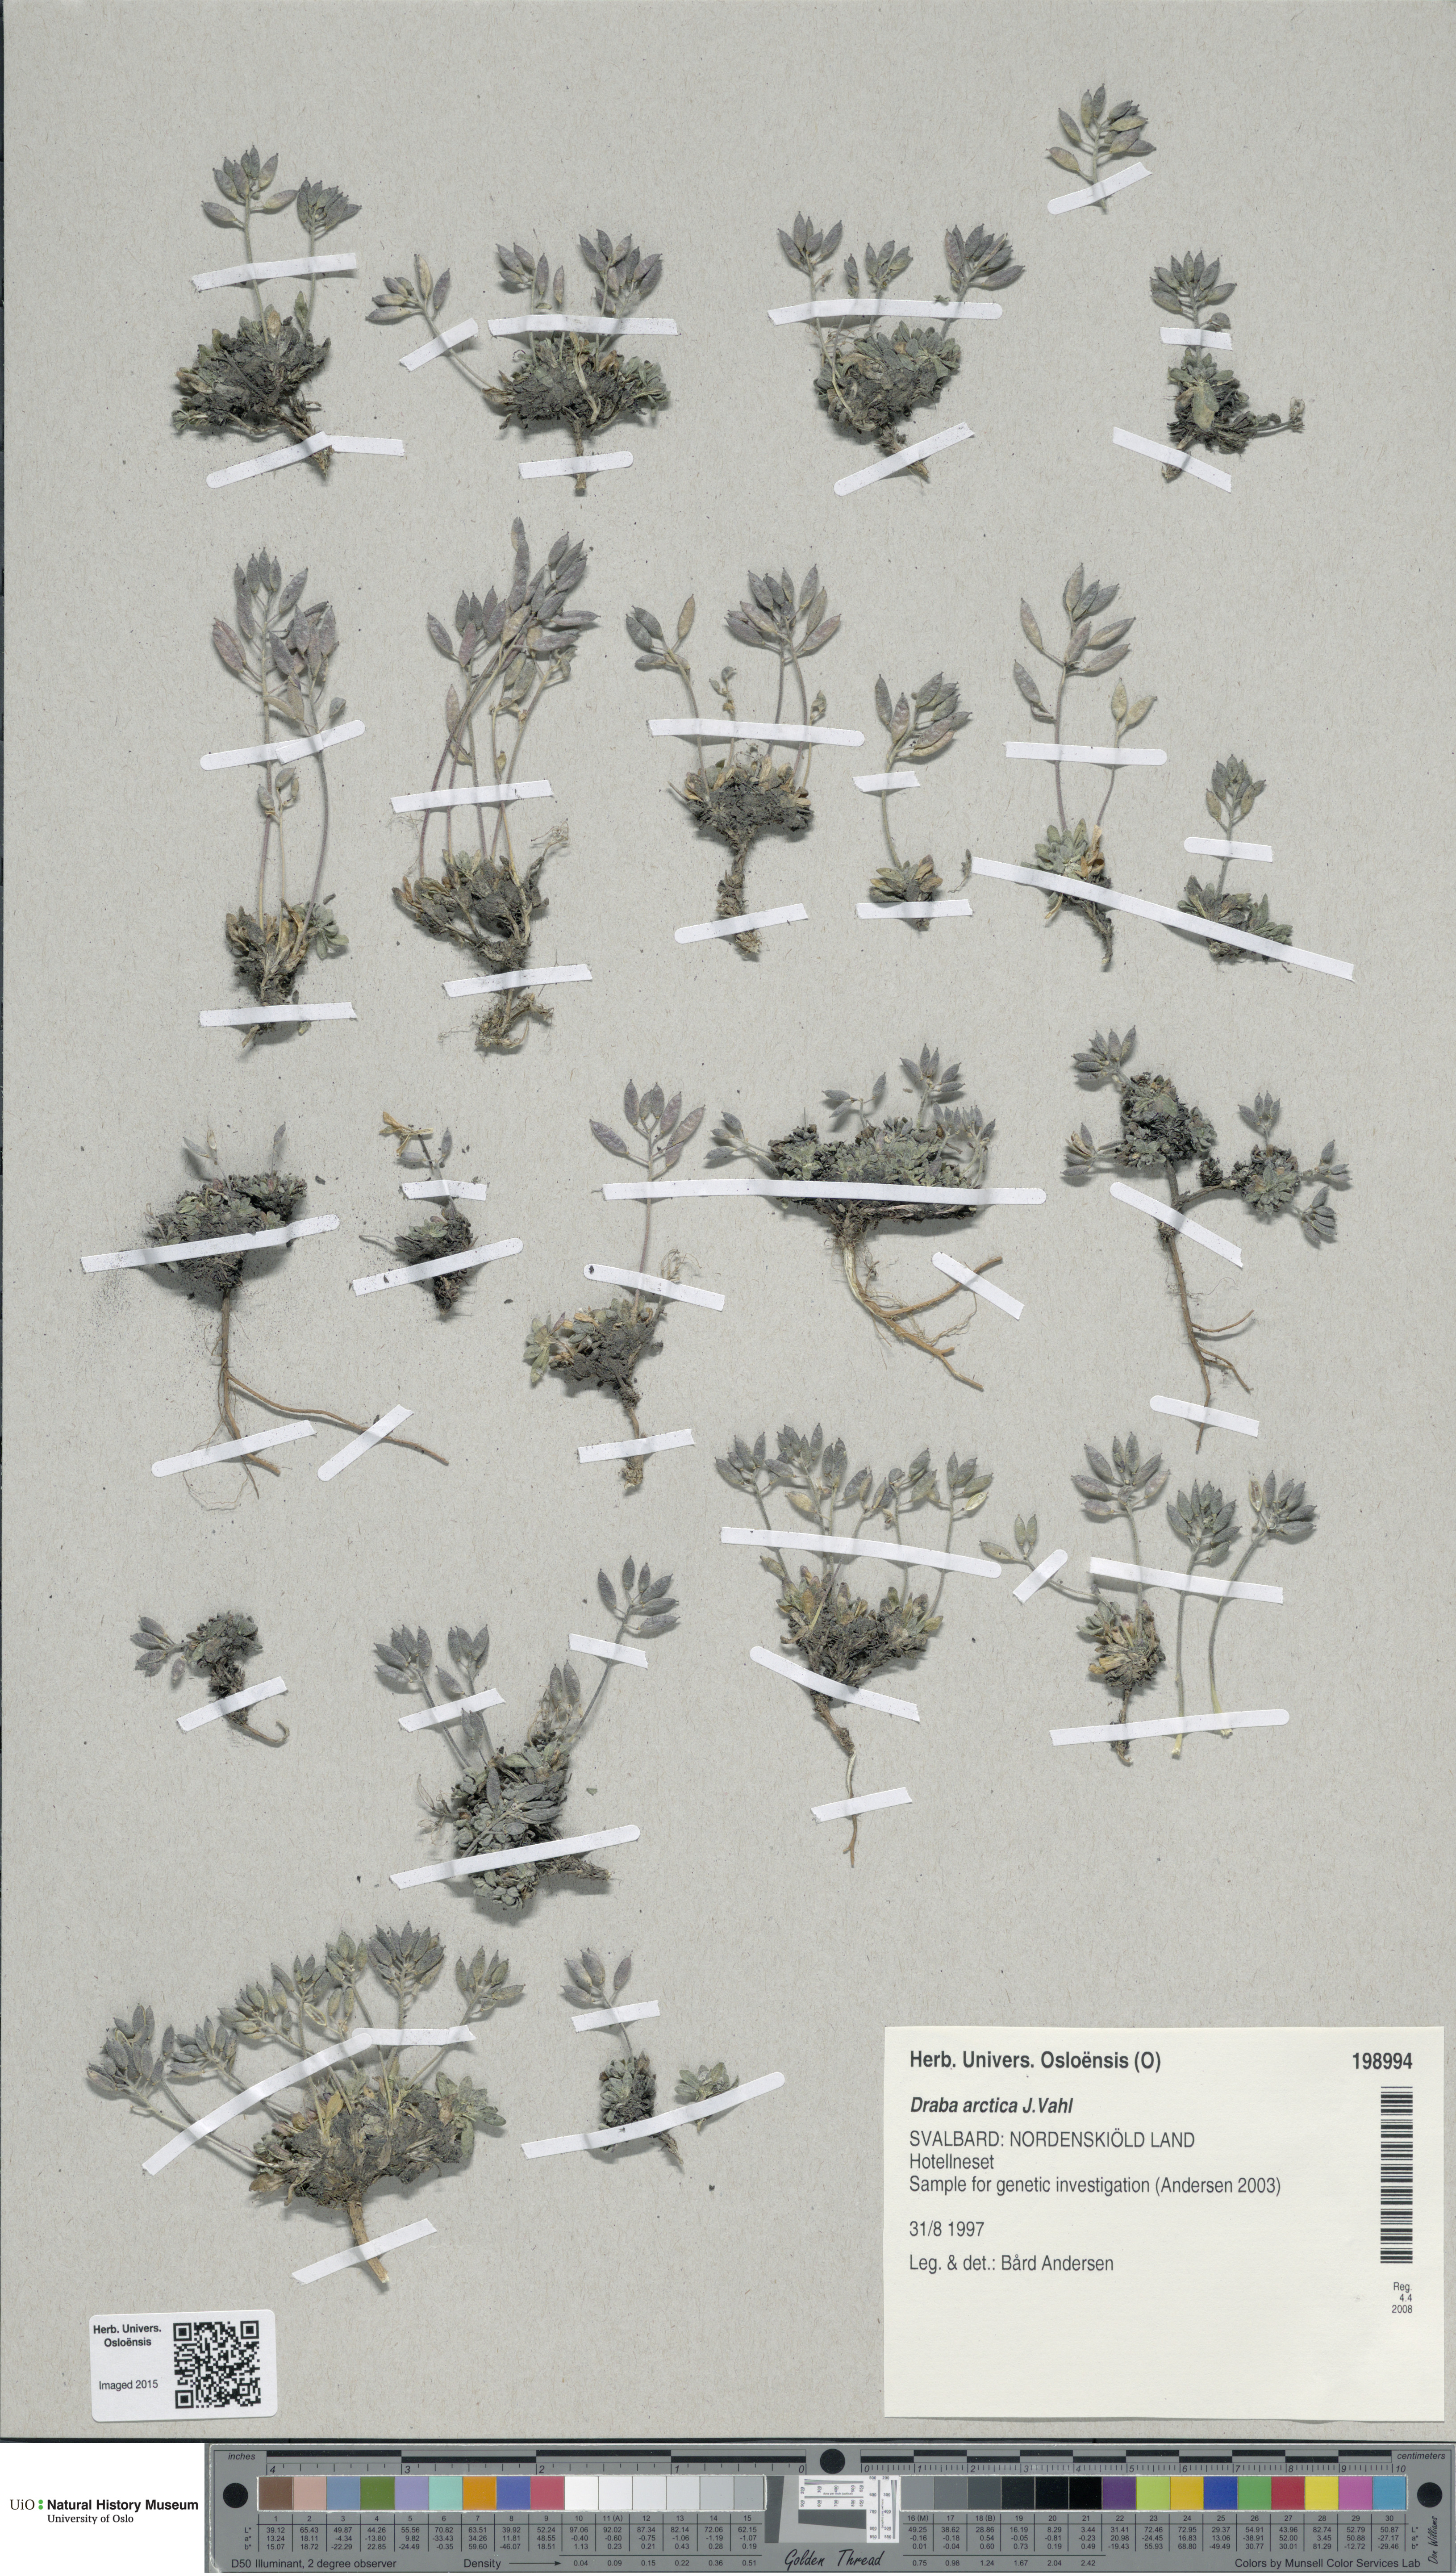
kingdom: Plantae
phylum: Tracheophyta
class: Magnoliopsida
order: Brassicales
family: Brassicaceae
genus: Draba
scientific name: Draba arctica
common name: Arctic draba
